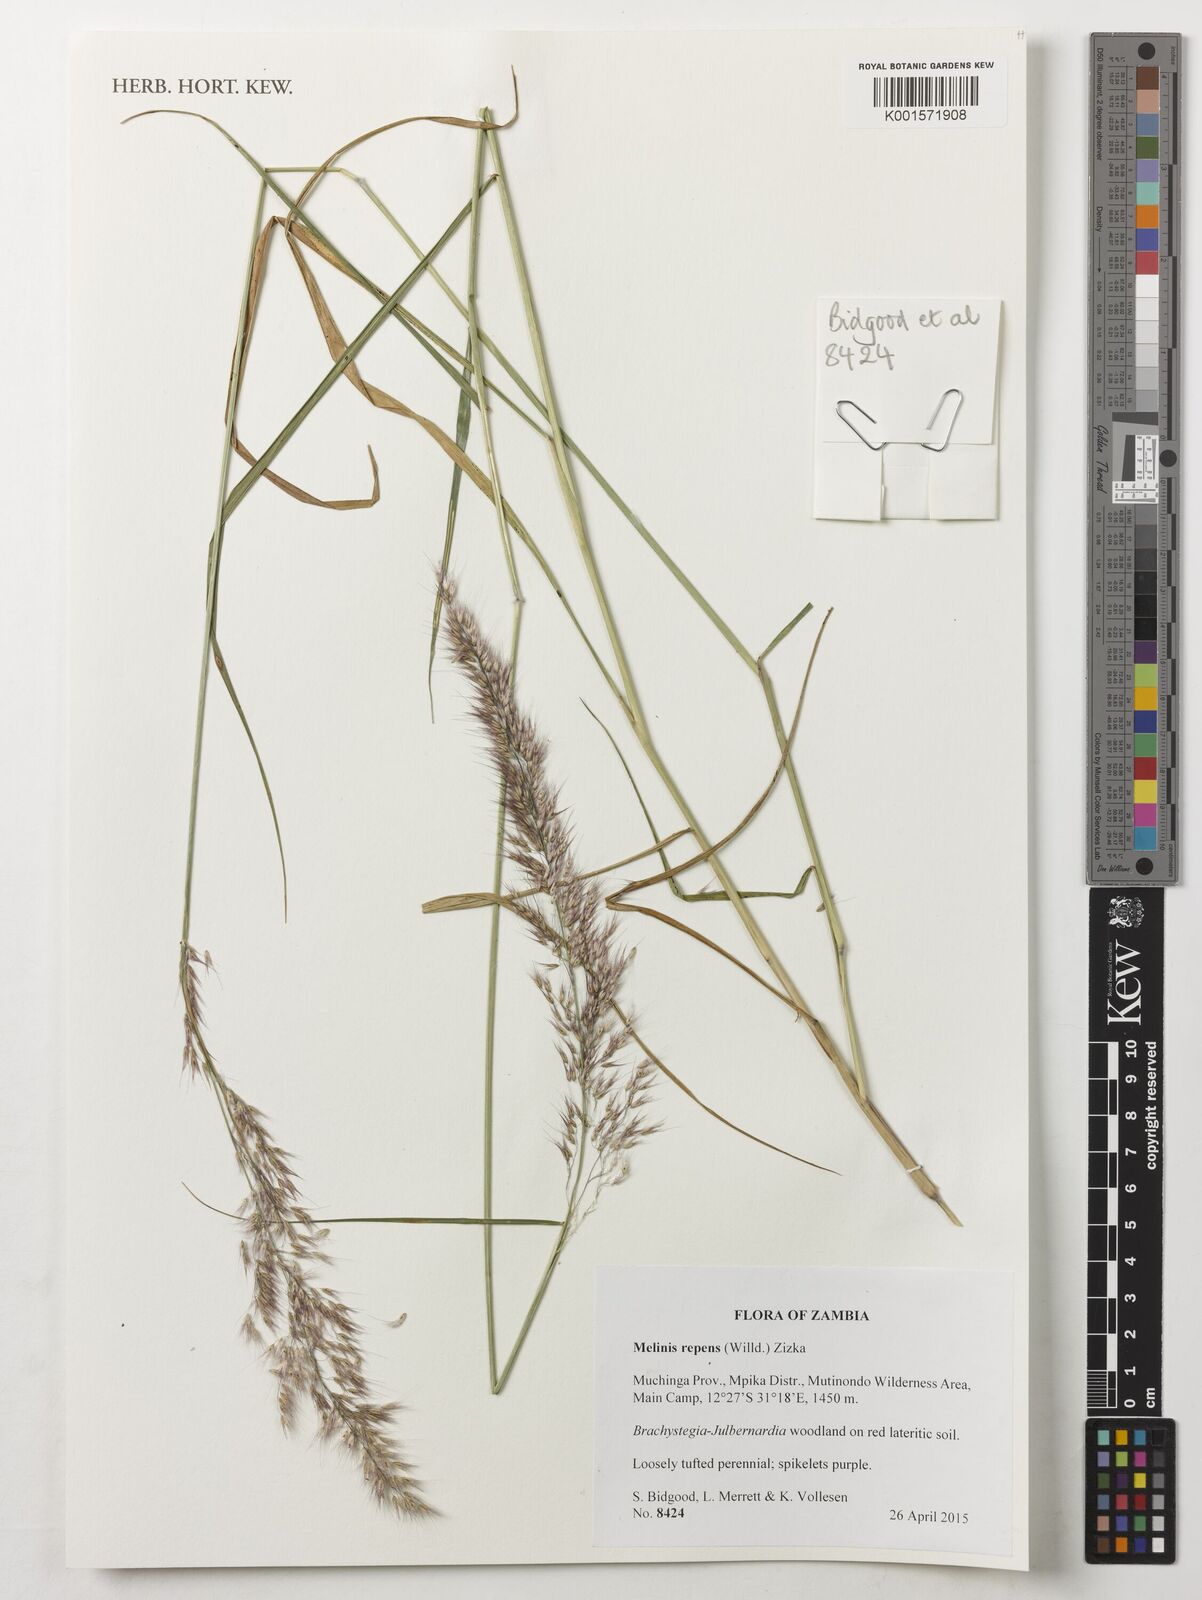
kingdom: Plantae
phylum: Tracheophyta
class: Liliopsida
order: Poales
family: Poaceae
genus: Melinis
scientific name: Melinis repens
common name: Rose natal grass
